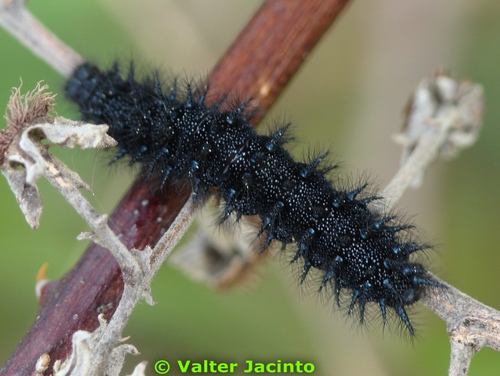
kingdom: Animalia
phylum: Arthropoda
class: Insecta
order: Lepidoptera
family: Nymphalidae
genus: Euphydryas
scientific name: Euphydryas aurinia
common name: Marsh fritillary
